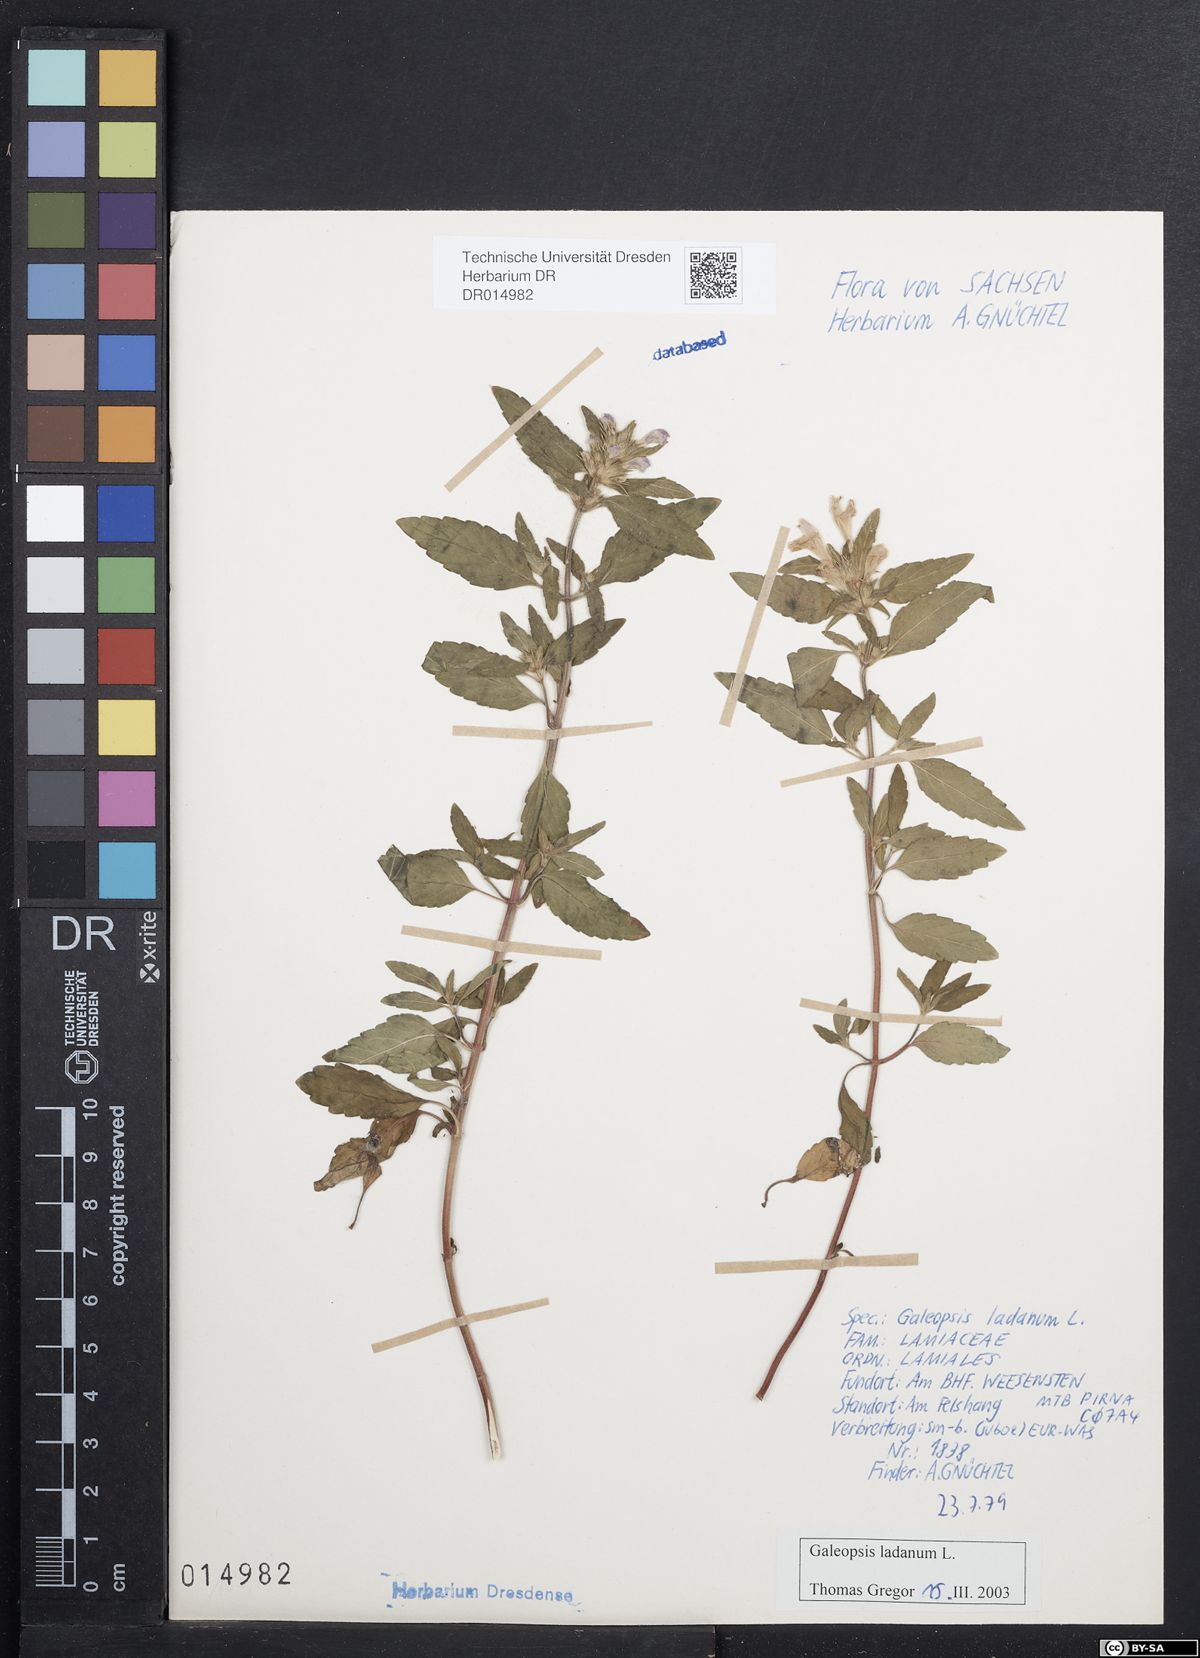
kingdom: Plantae
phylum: Tracheophyta
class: Magnoliopsida
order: Lamiales
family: Lamiaceae
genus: Galeopsis
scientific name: Galeopsis ladanum
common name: Broad-leaved hemp-nettle
